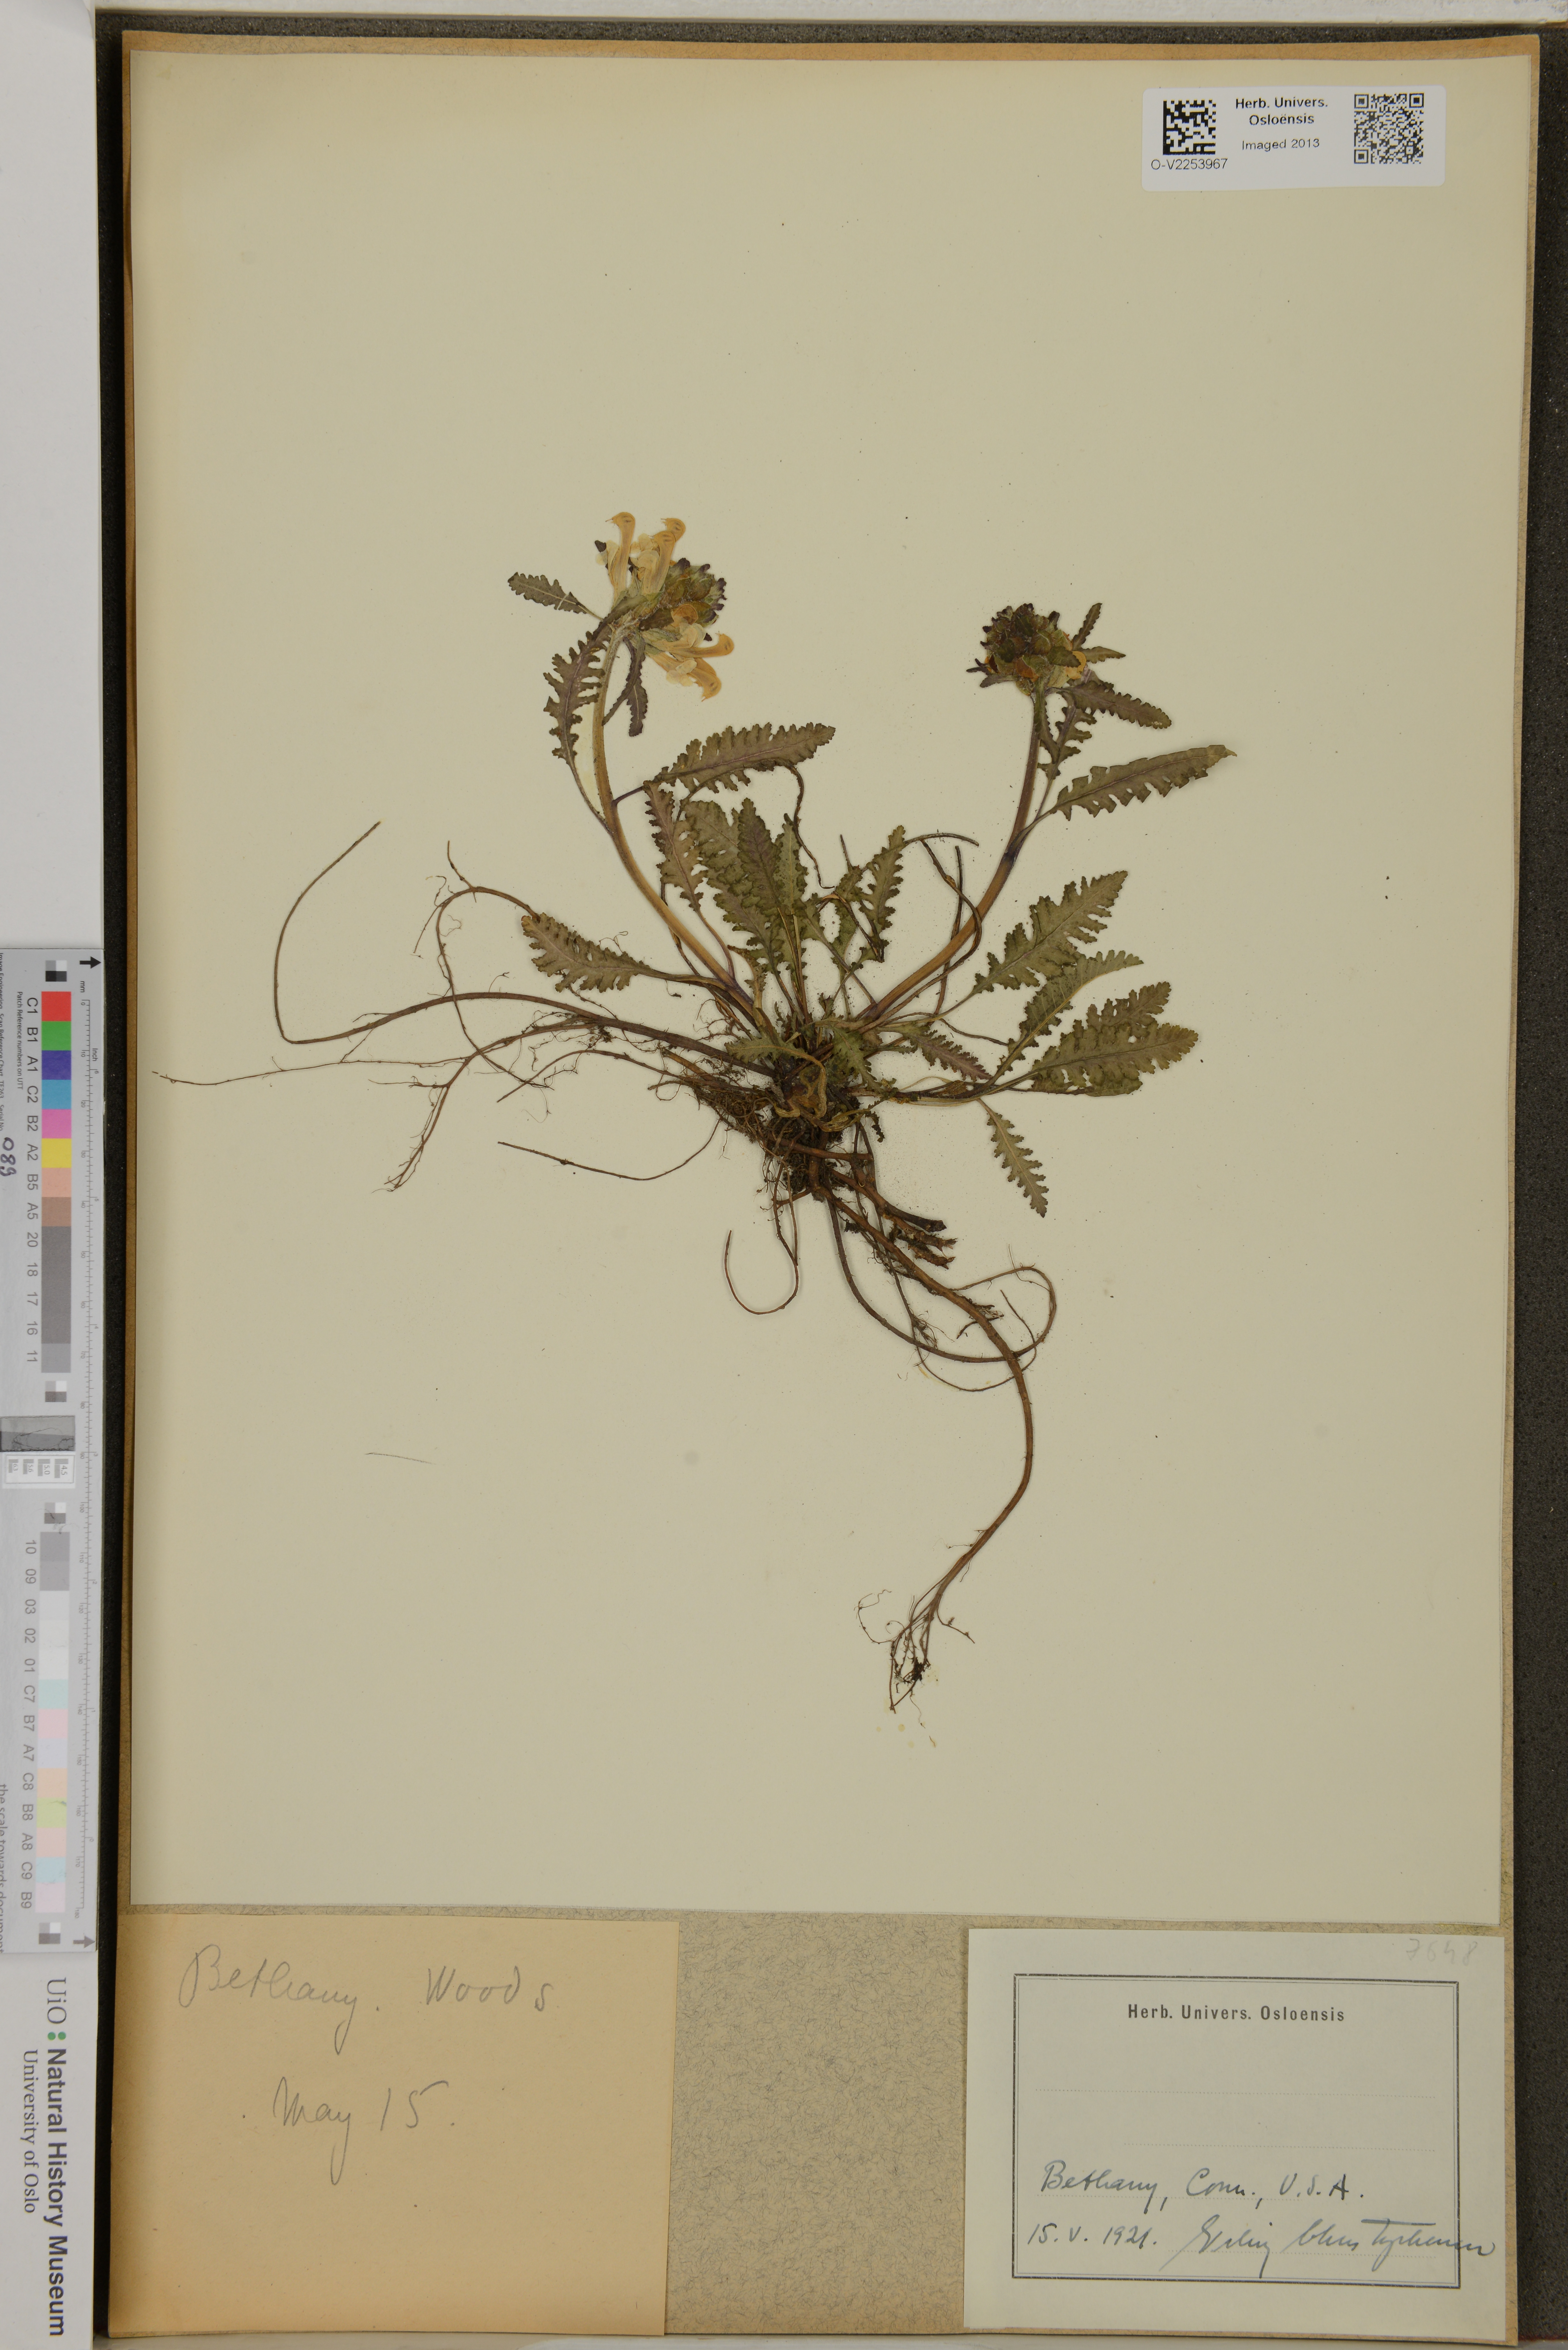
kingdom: Plantae
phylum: Tracheophyta
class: Magnoliopsida
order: Lamiales
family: Orobanchaceae
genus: Pedicularis
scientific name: Pedicularis
